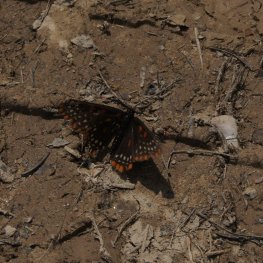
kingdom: Animalia
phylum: Arthropoda
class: Insecta
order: Lepidoptera
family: Nymphalidae
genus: Euphydryas
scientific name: Euphydryas phaeton
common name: Baltimore Checkerspot
